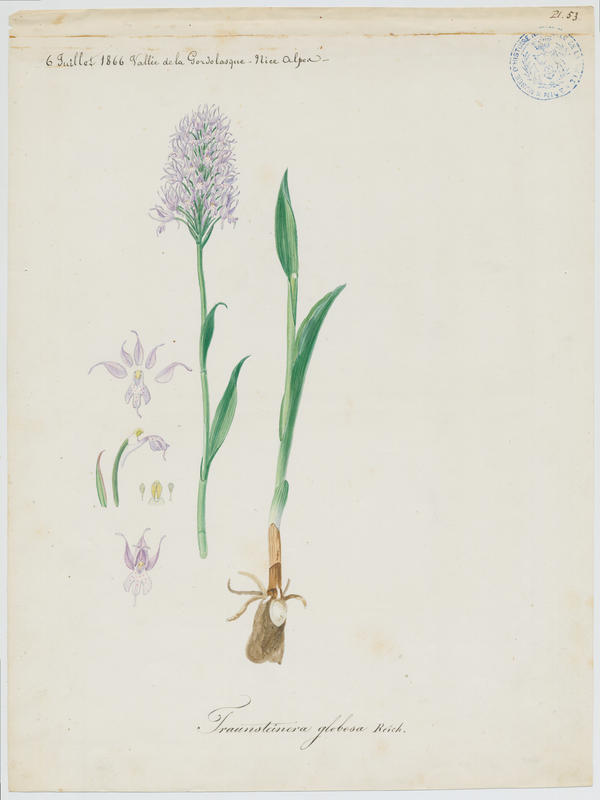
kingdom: Plantae
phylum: Tracheophyta
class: Liliopsida
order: Asparagales
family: Orchidaceae
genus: Traunsteinera
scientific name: Traunsteinera globosa
